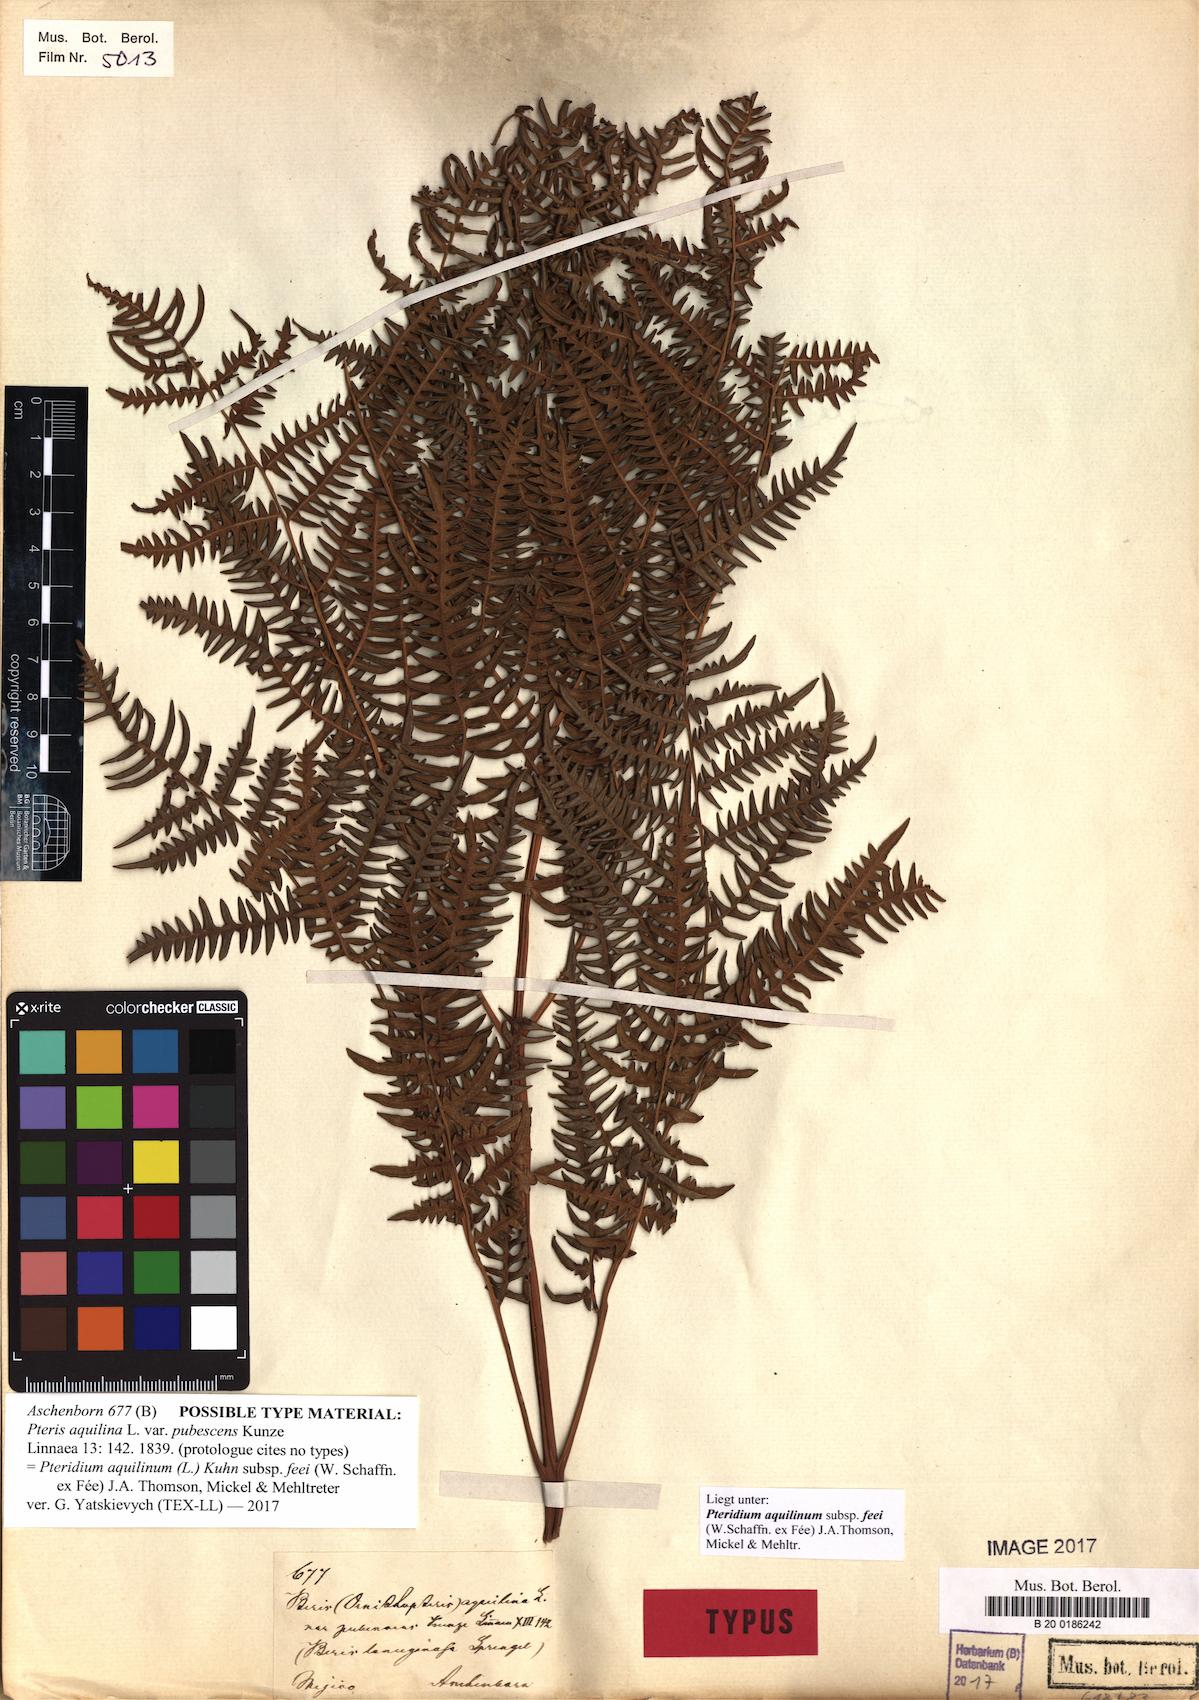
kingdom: Plantae
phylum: Tracheophyta
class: Polypodiopsida
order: Polypodiales
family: Dennstaedtiaceae
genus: Pteridium
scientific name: Pteridium aquilinum
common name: Bracken
